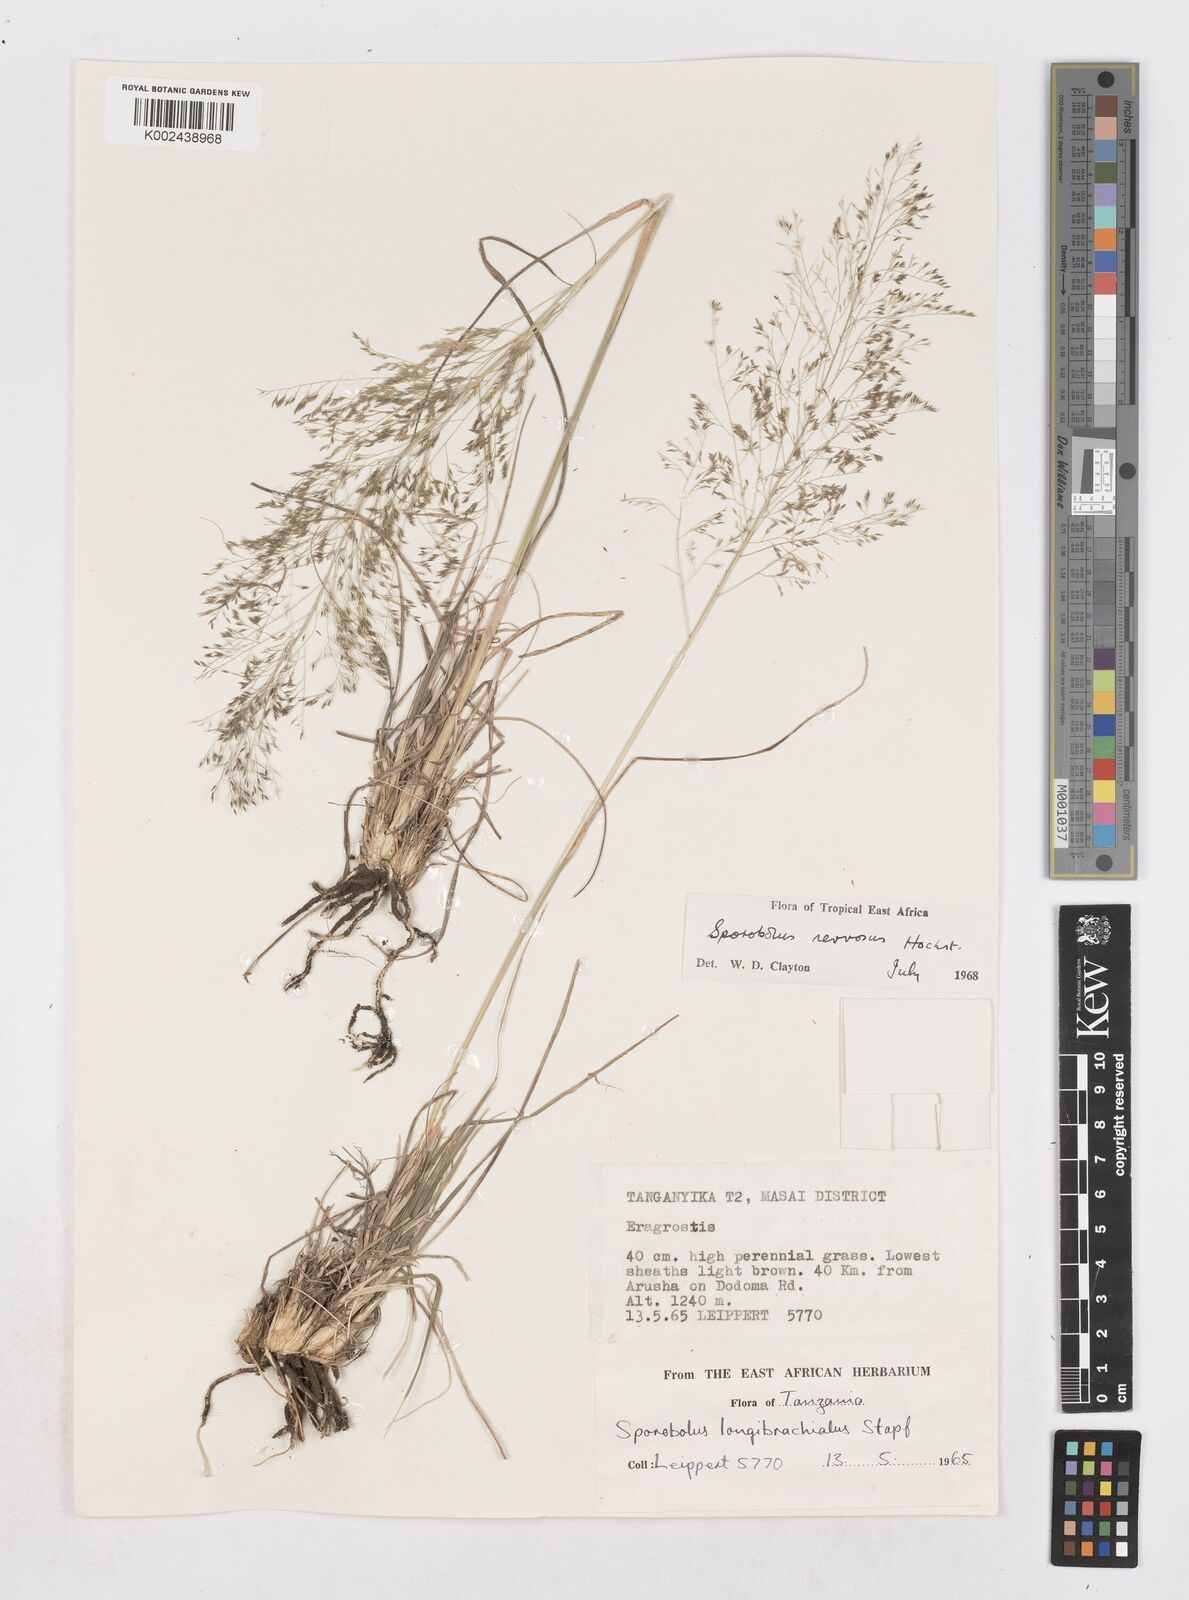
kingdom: Plantae
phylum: Tracheophyta
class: Liliopsida
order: Poales
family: Poaceae
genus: Sporobolus
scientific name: Sporobolus nervosus
